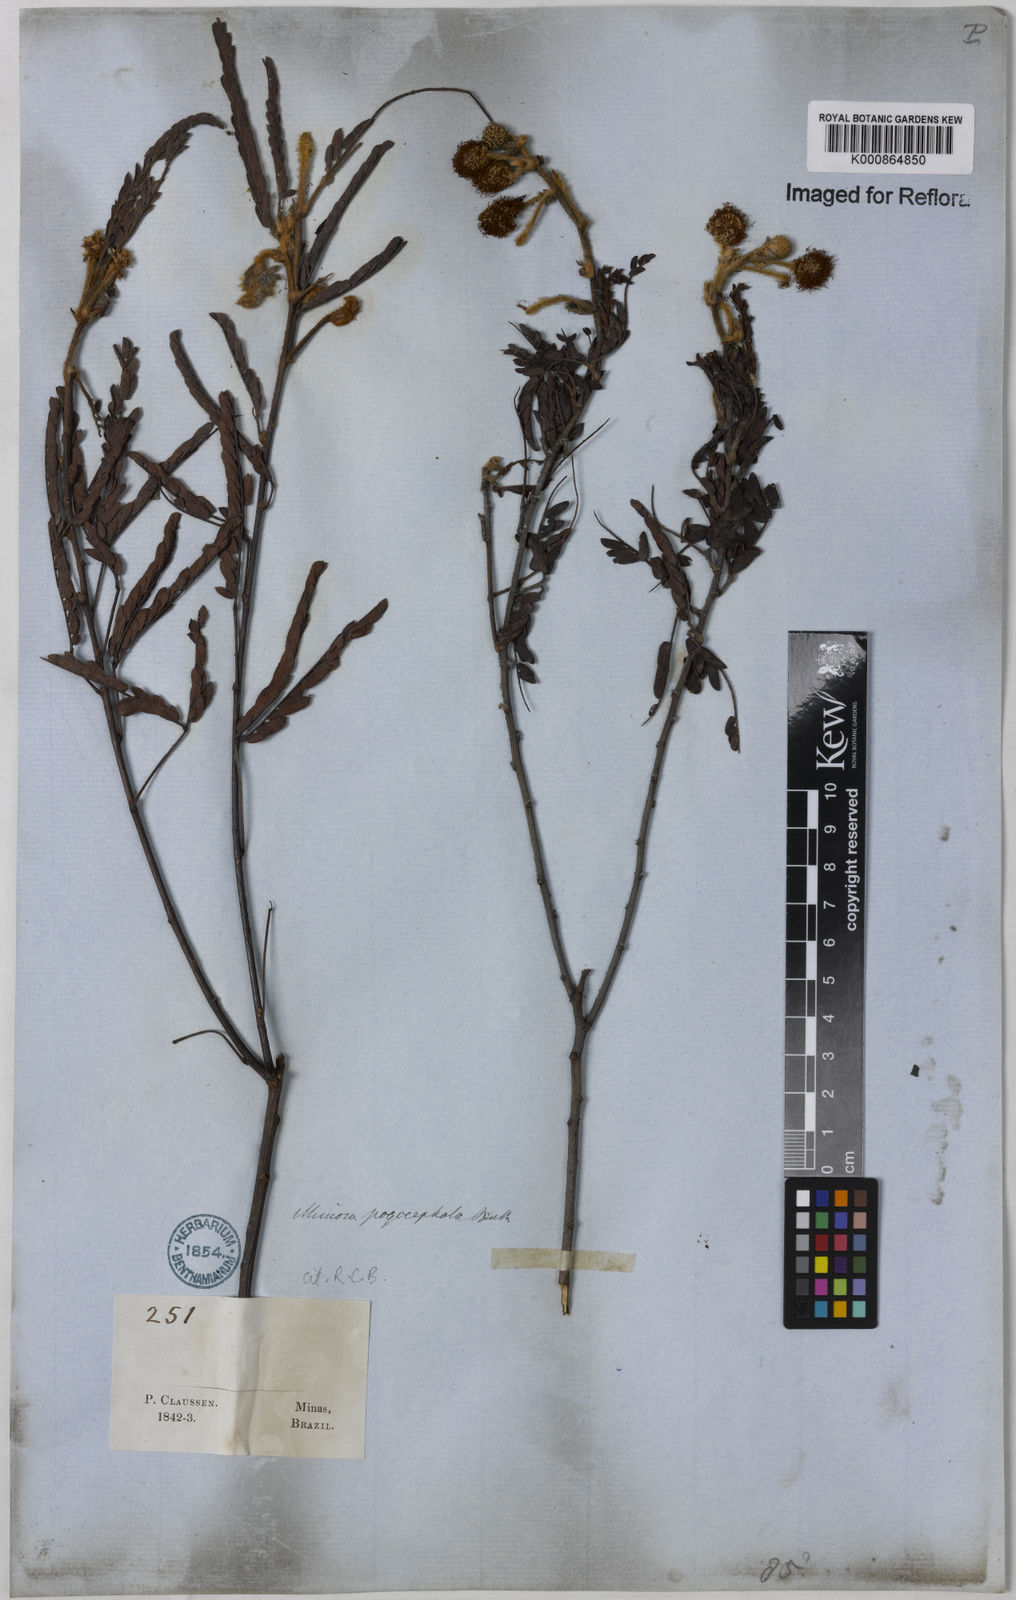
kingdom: Plantae
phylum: Tracheophyta
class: Magnoliopsida
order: Fabales
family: Fabaceae
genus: Mimosa
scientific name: Mimosa pogocephala
